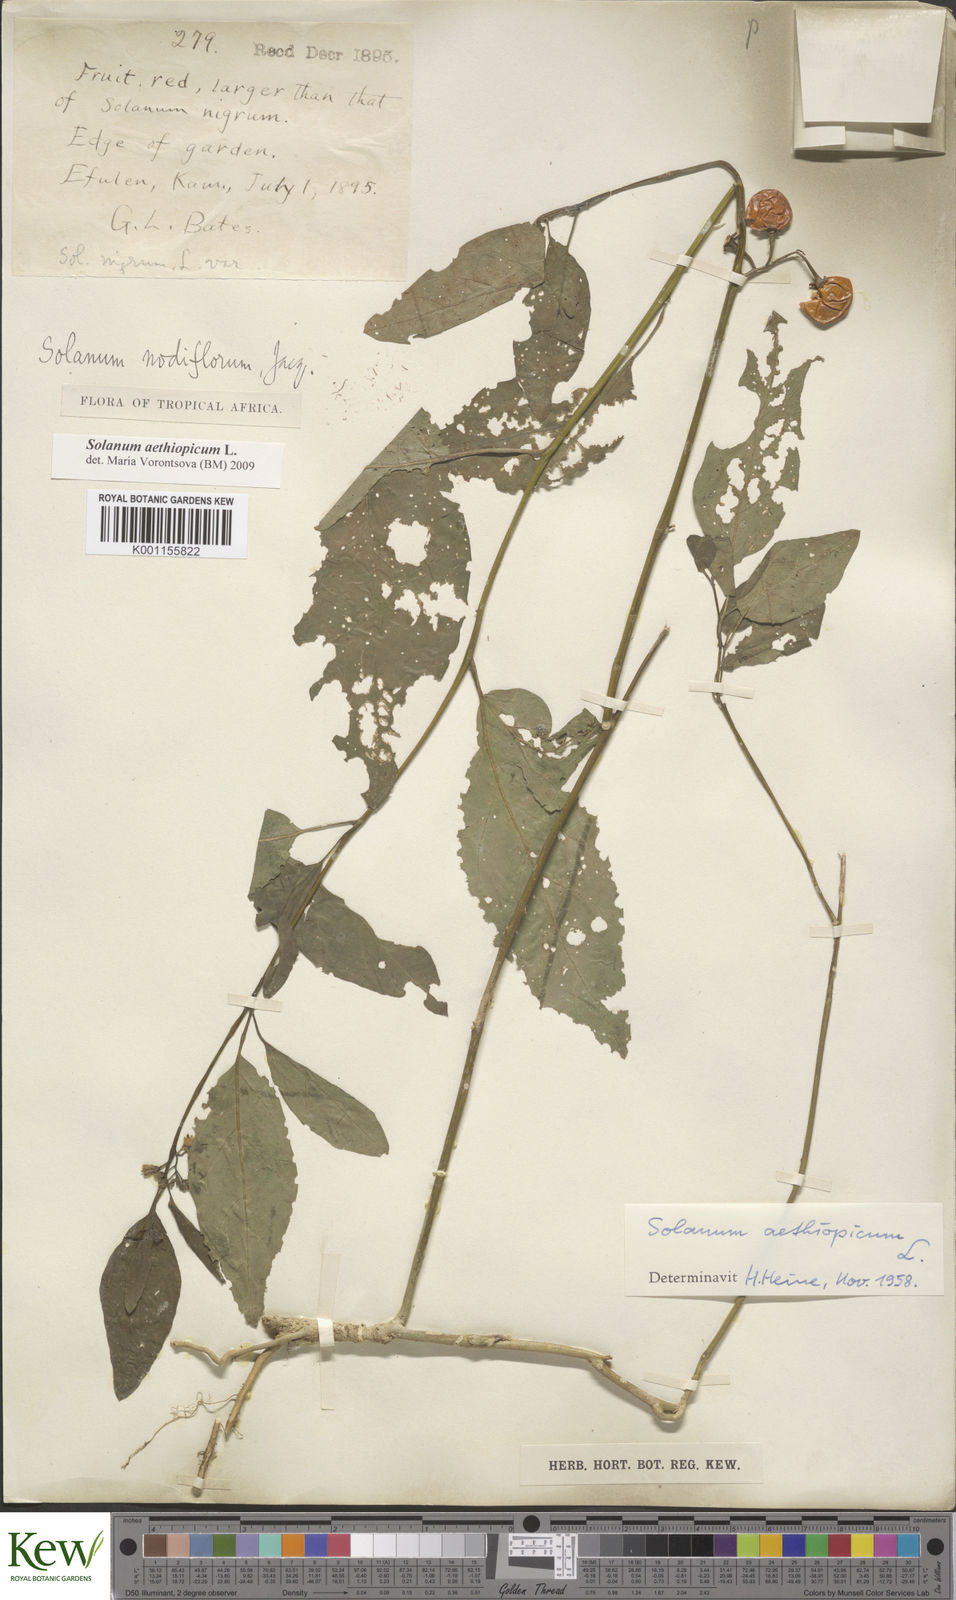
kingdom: Plantae
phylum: Tracheophyta
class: Magnoliopsida
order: Solanales
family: Solanaceae
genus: Solanum
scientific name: Solanum aethiopicum
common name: Gilo
